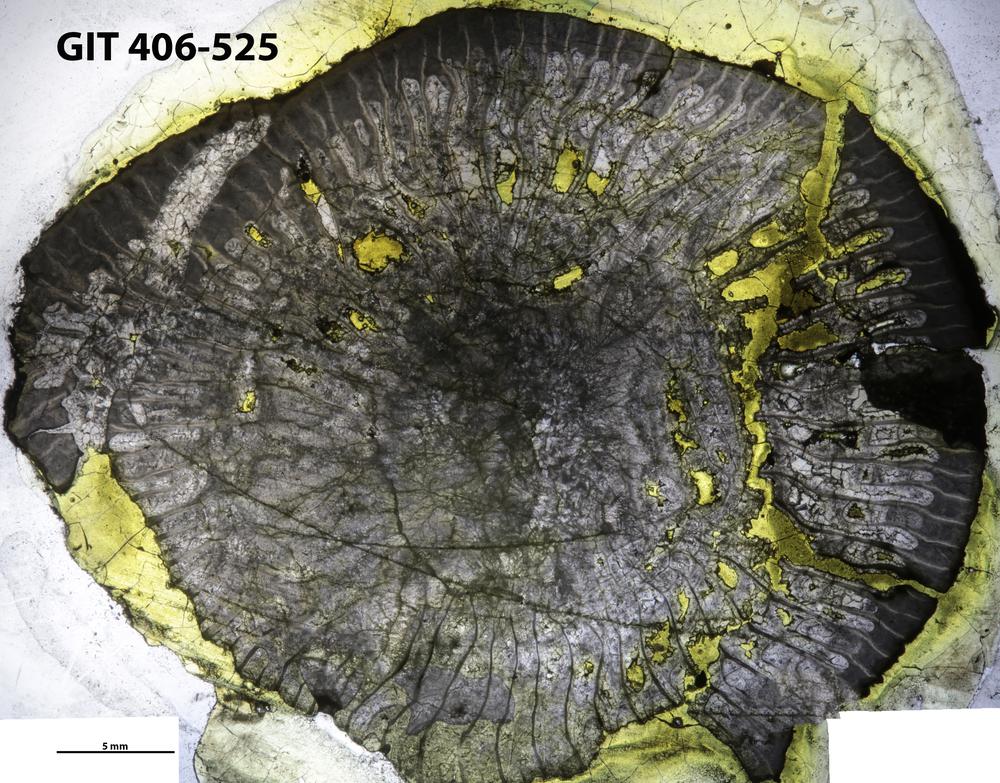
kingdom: Animalia
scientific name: Animalia
